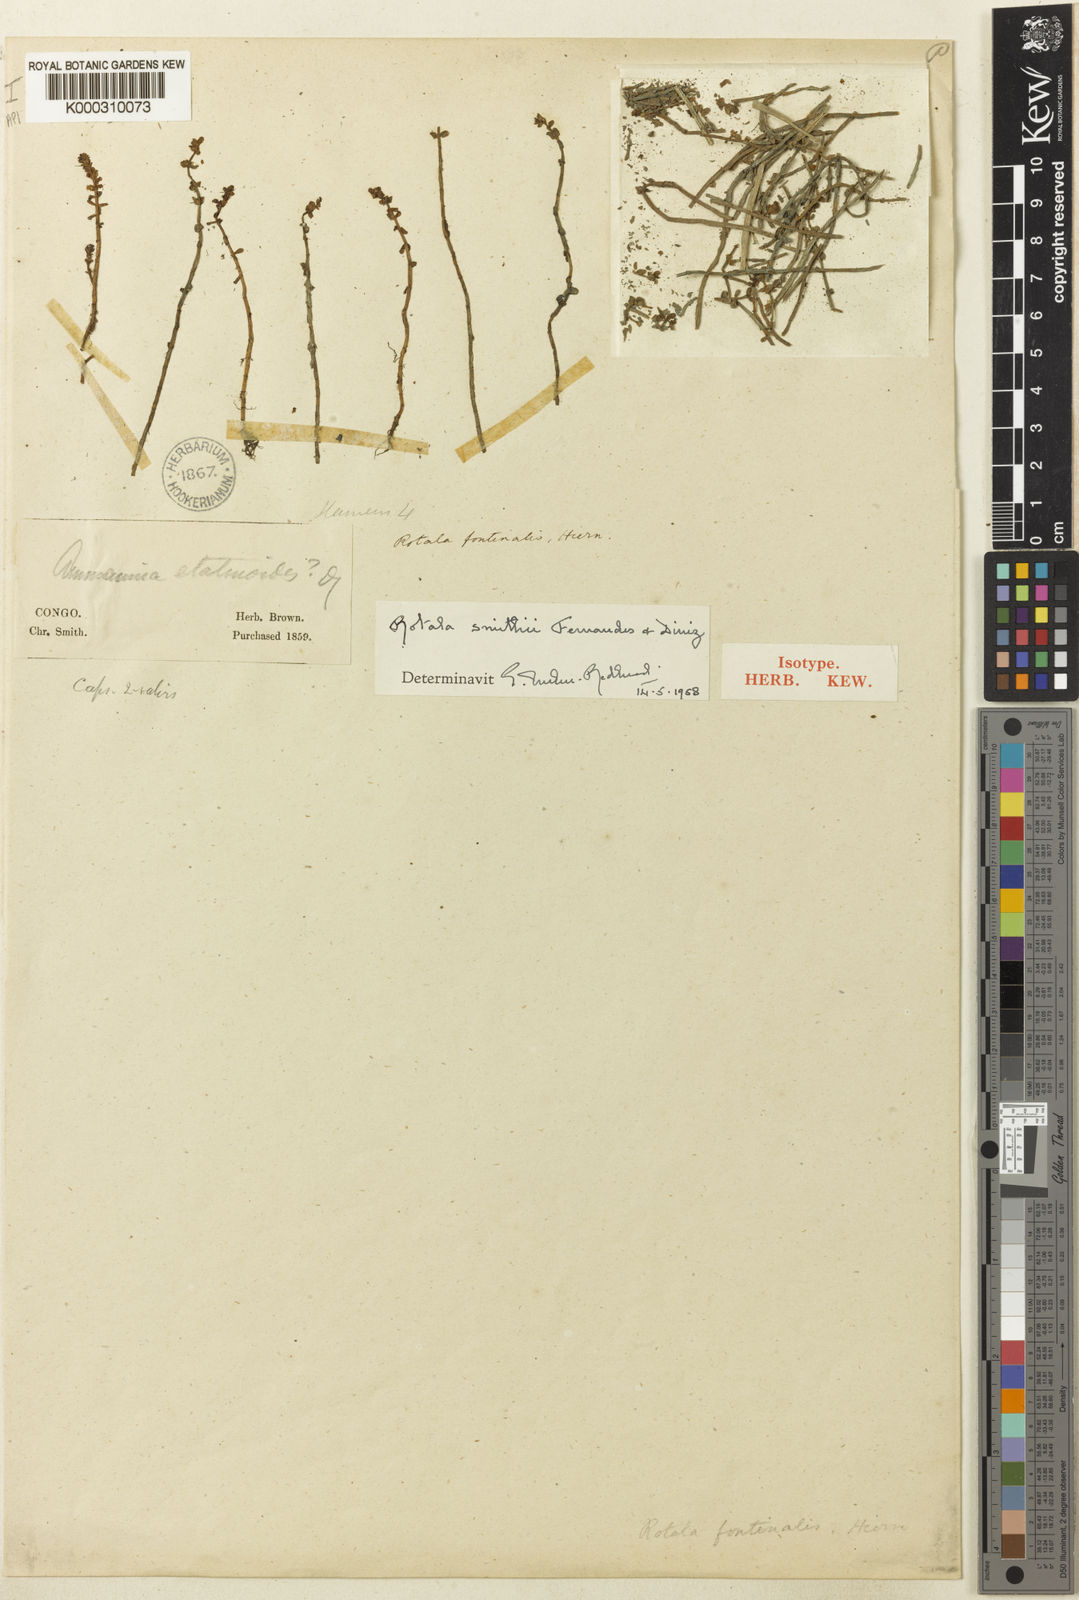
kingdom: Plantae
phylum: Tracheophyta
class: Magnoliopsida
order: Myrtales
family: Lythraceae
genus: Rotala
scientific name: Rotala smithii
